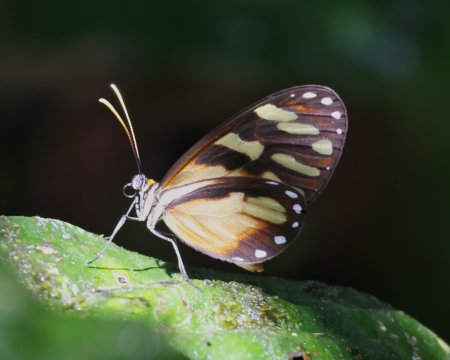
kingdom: Animalia
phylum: Arthropoda
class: Insecta
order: Lepidoptera
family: Nymphalidae
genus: Ithomia
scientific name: Ithomia heraldica
